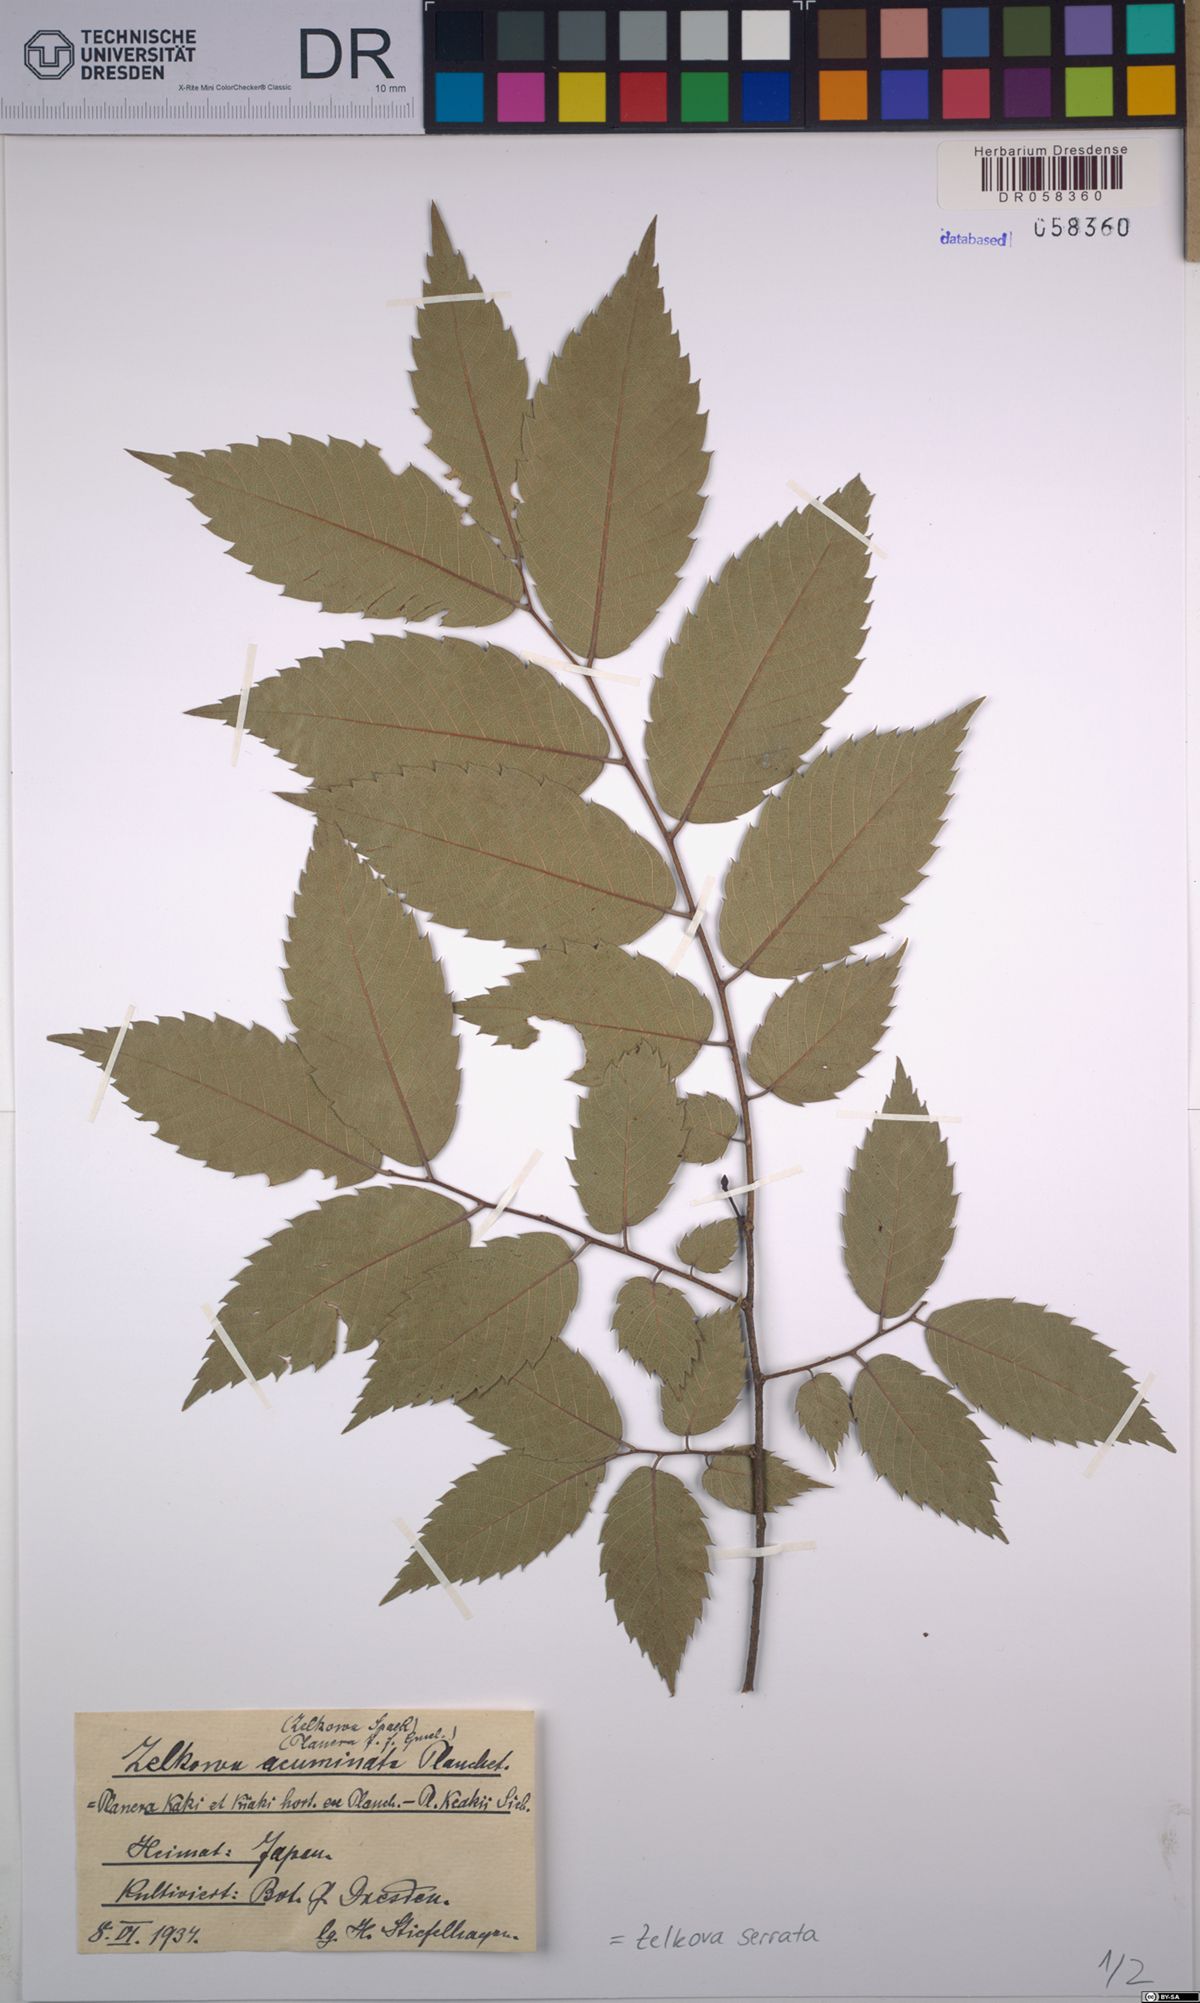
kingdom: Plantae
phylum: Tracheophyta
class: Magnoliopsida
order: Rosales
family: Ulmaceae
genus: Zelkova
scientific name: Zelkova serrata
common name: Japanese zelkova
